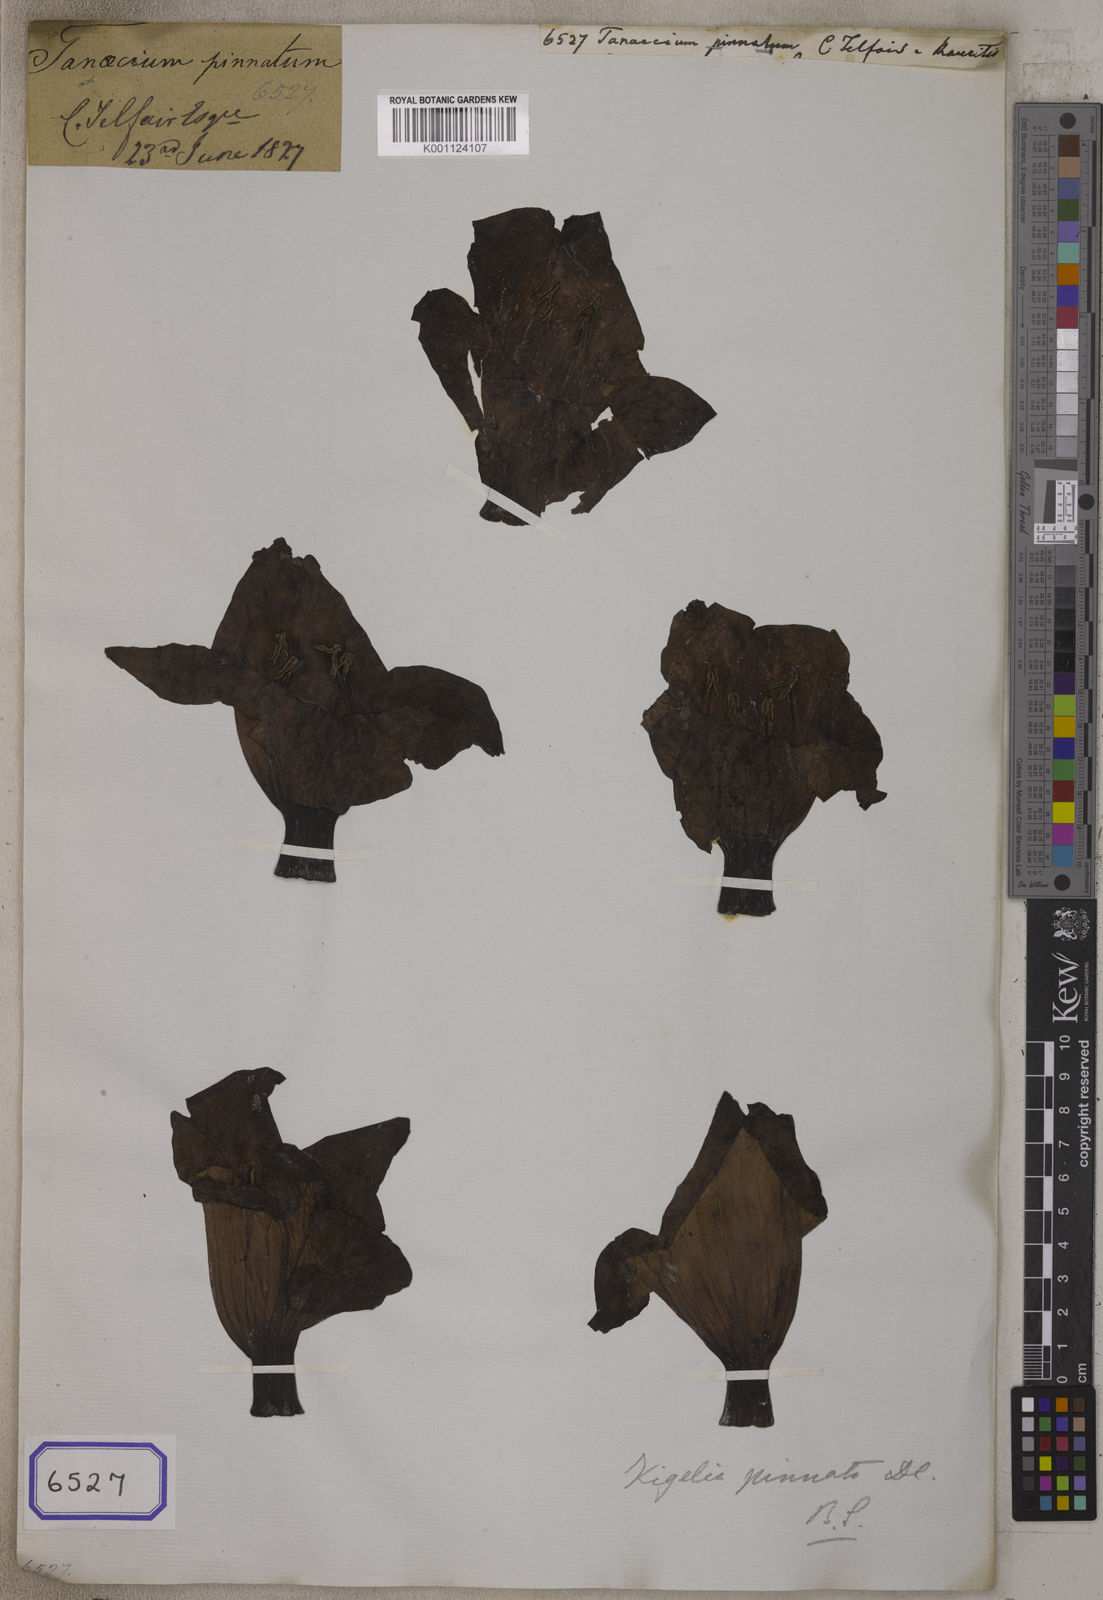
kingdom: Plantae
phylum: Tracheophyta
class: Magnoliopsida
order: Lamiales
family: Bignoniaceae
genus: Kigelia
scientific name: Kigelia africana
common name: Sausage tree
